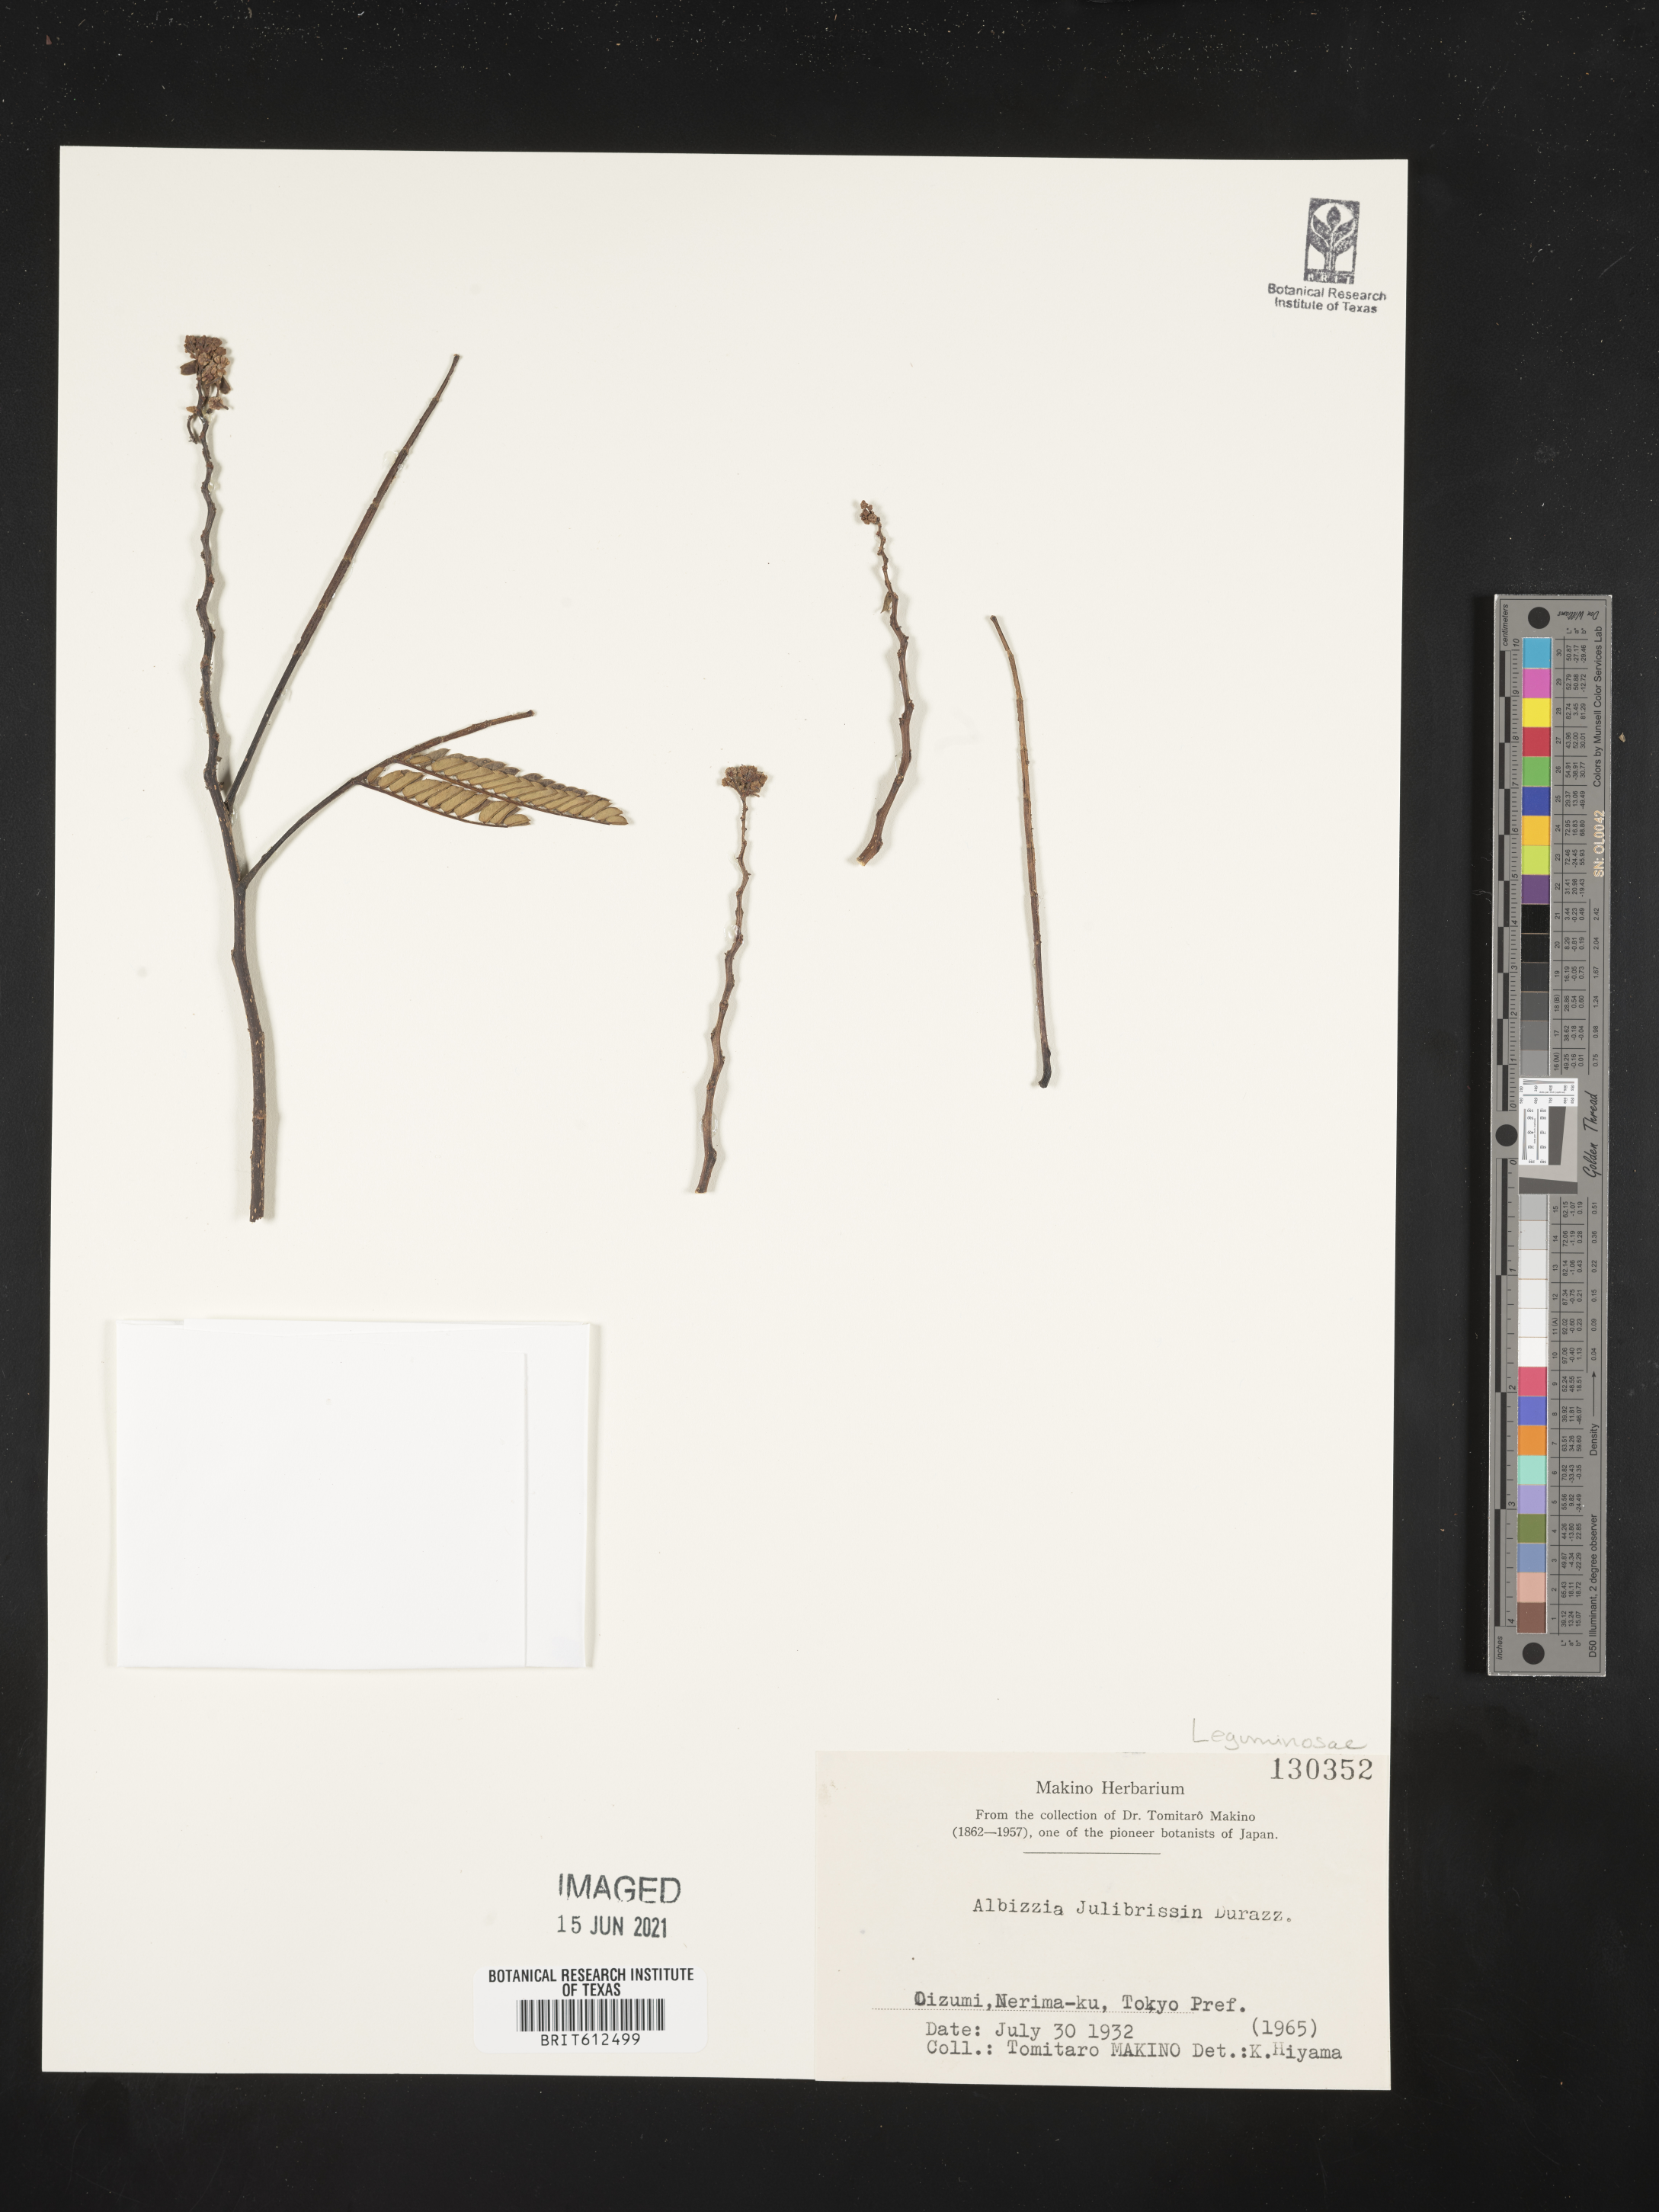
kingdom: Plantae
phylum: Tracheophyta
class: Magnoliopsida
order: Fabales
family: Fabaceae
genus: Albizia
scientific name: Albizia julibrissin
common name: Silktree
